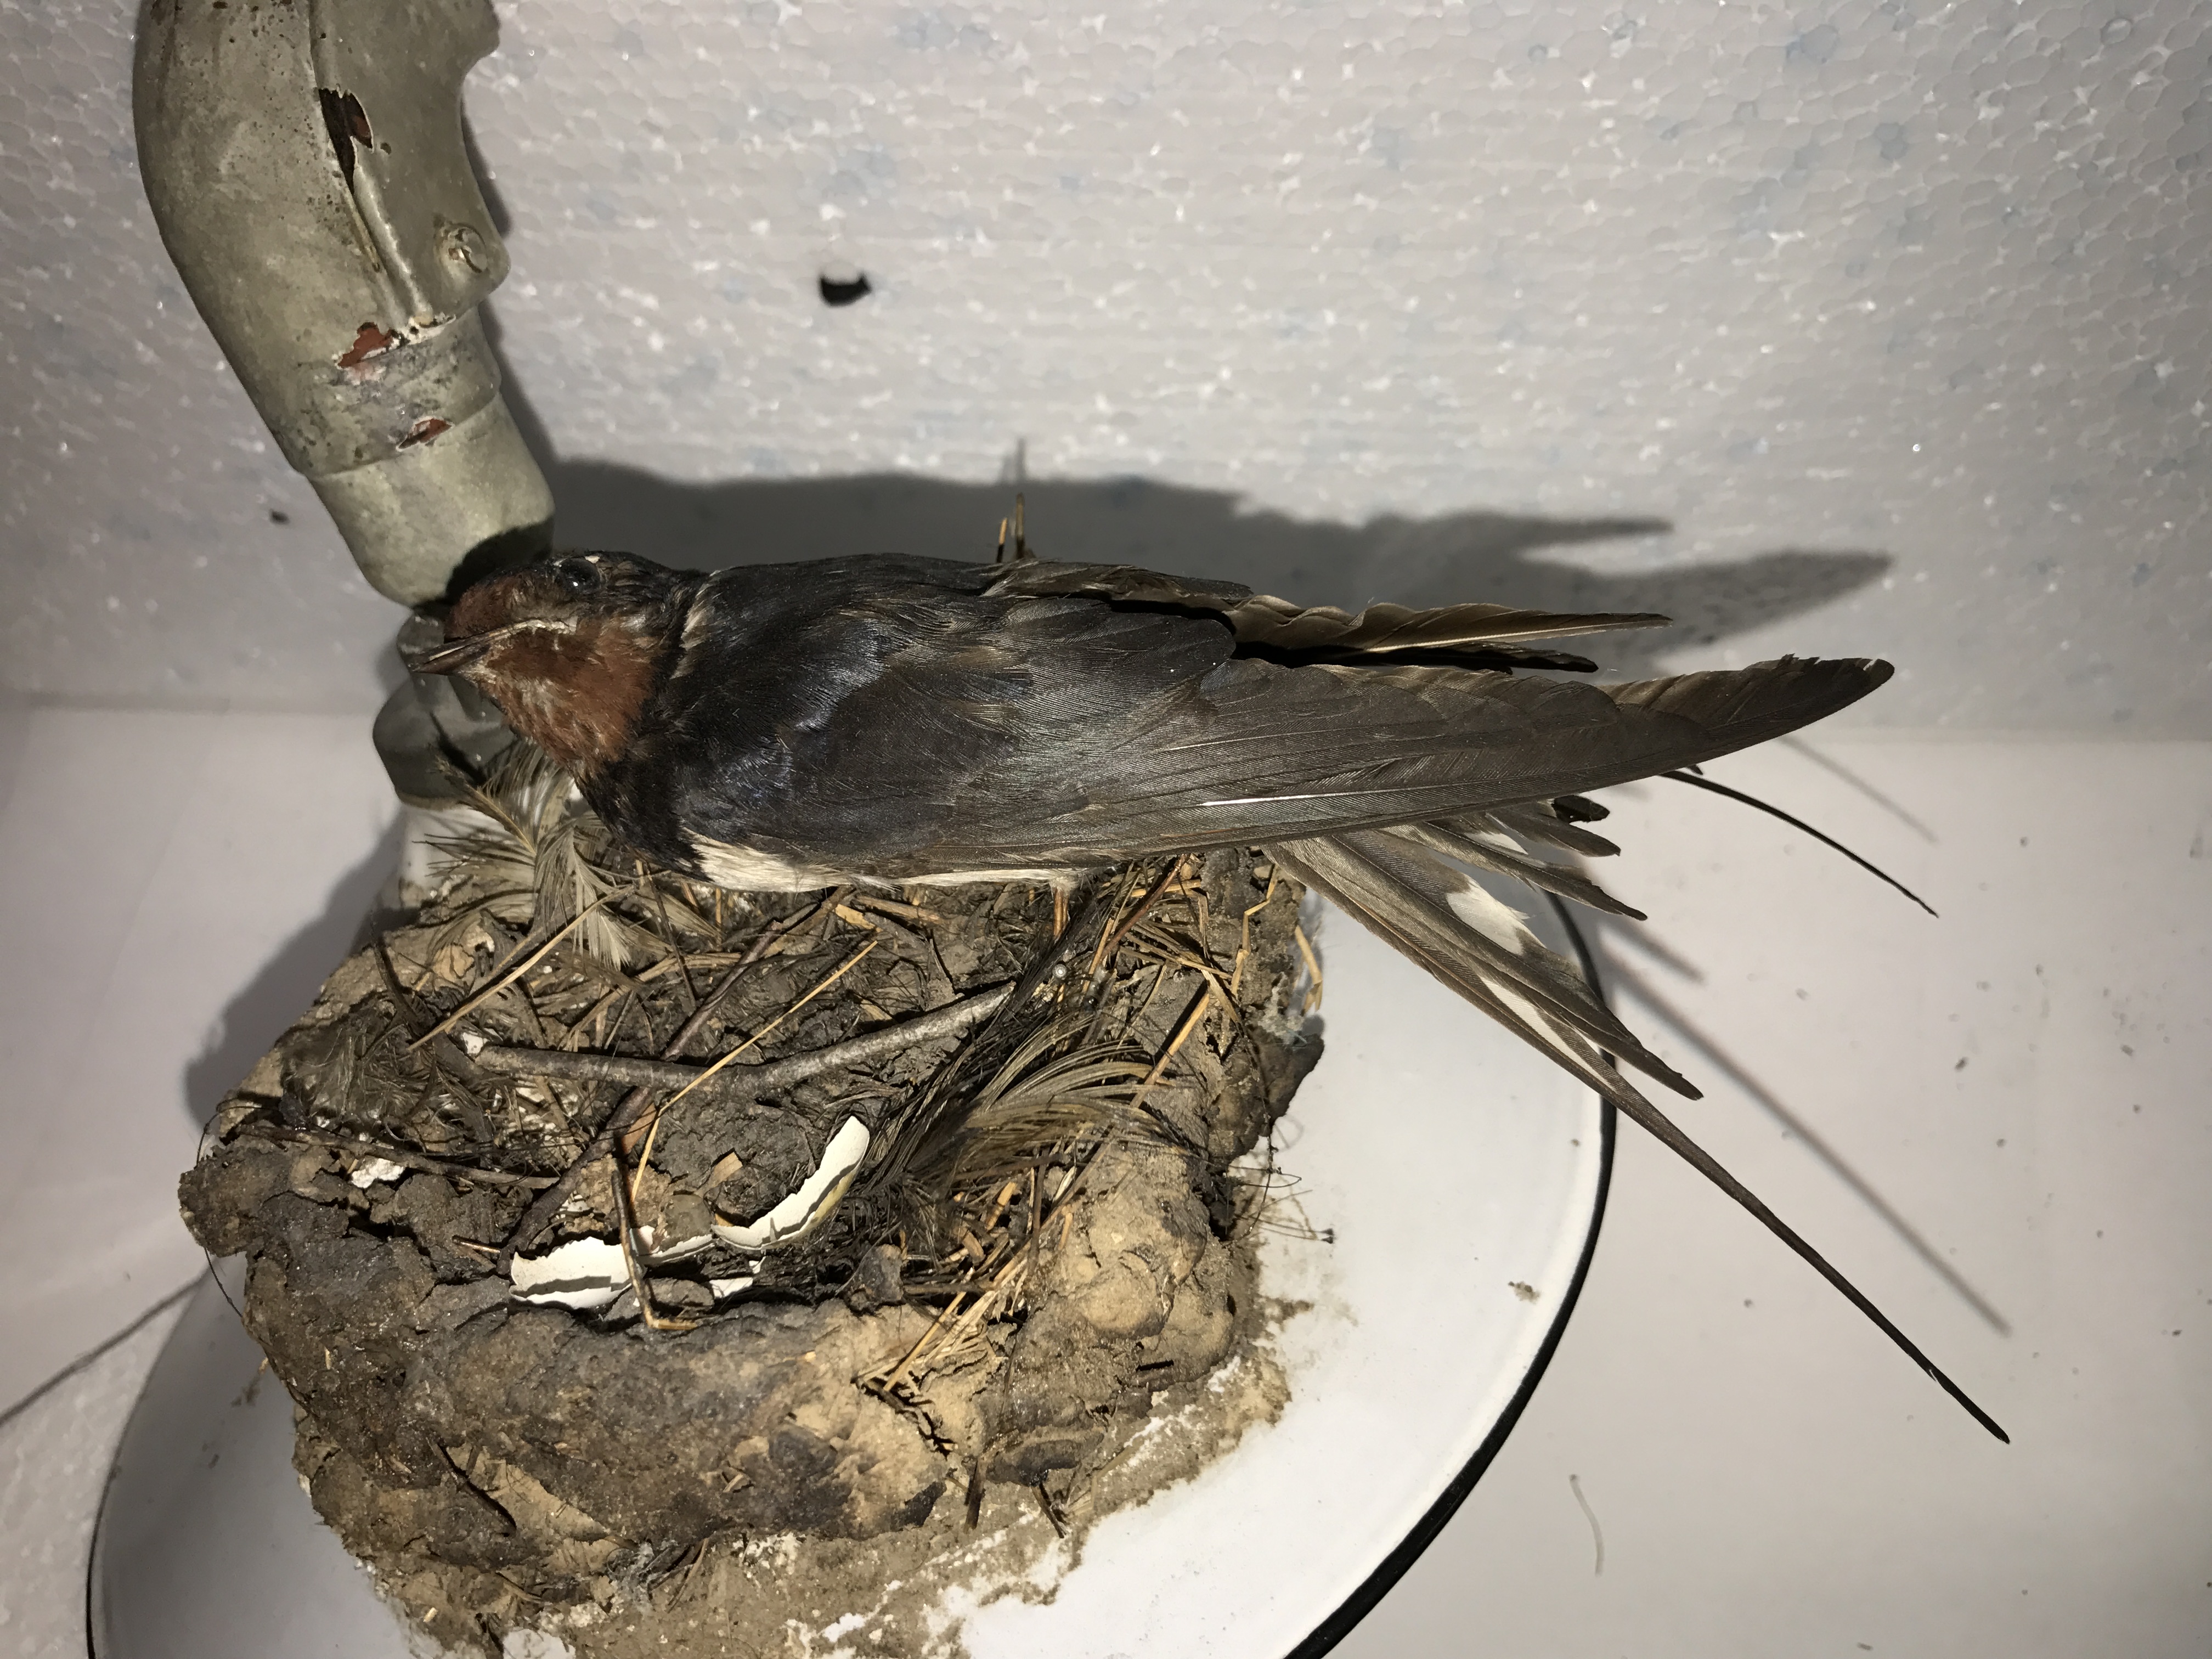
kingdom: Animalia
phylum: Chordata
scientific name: Chordata
